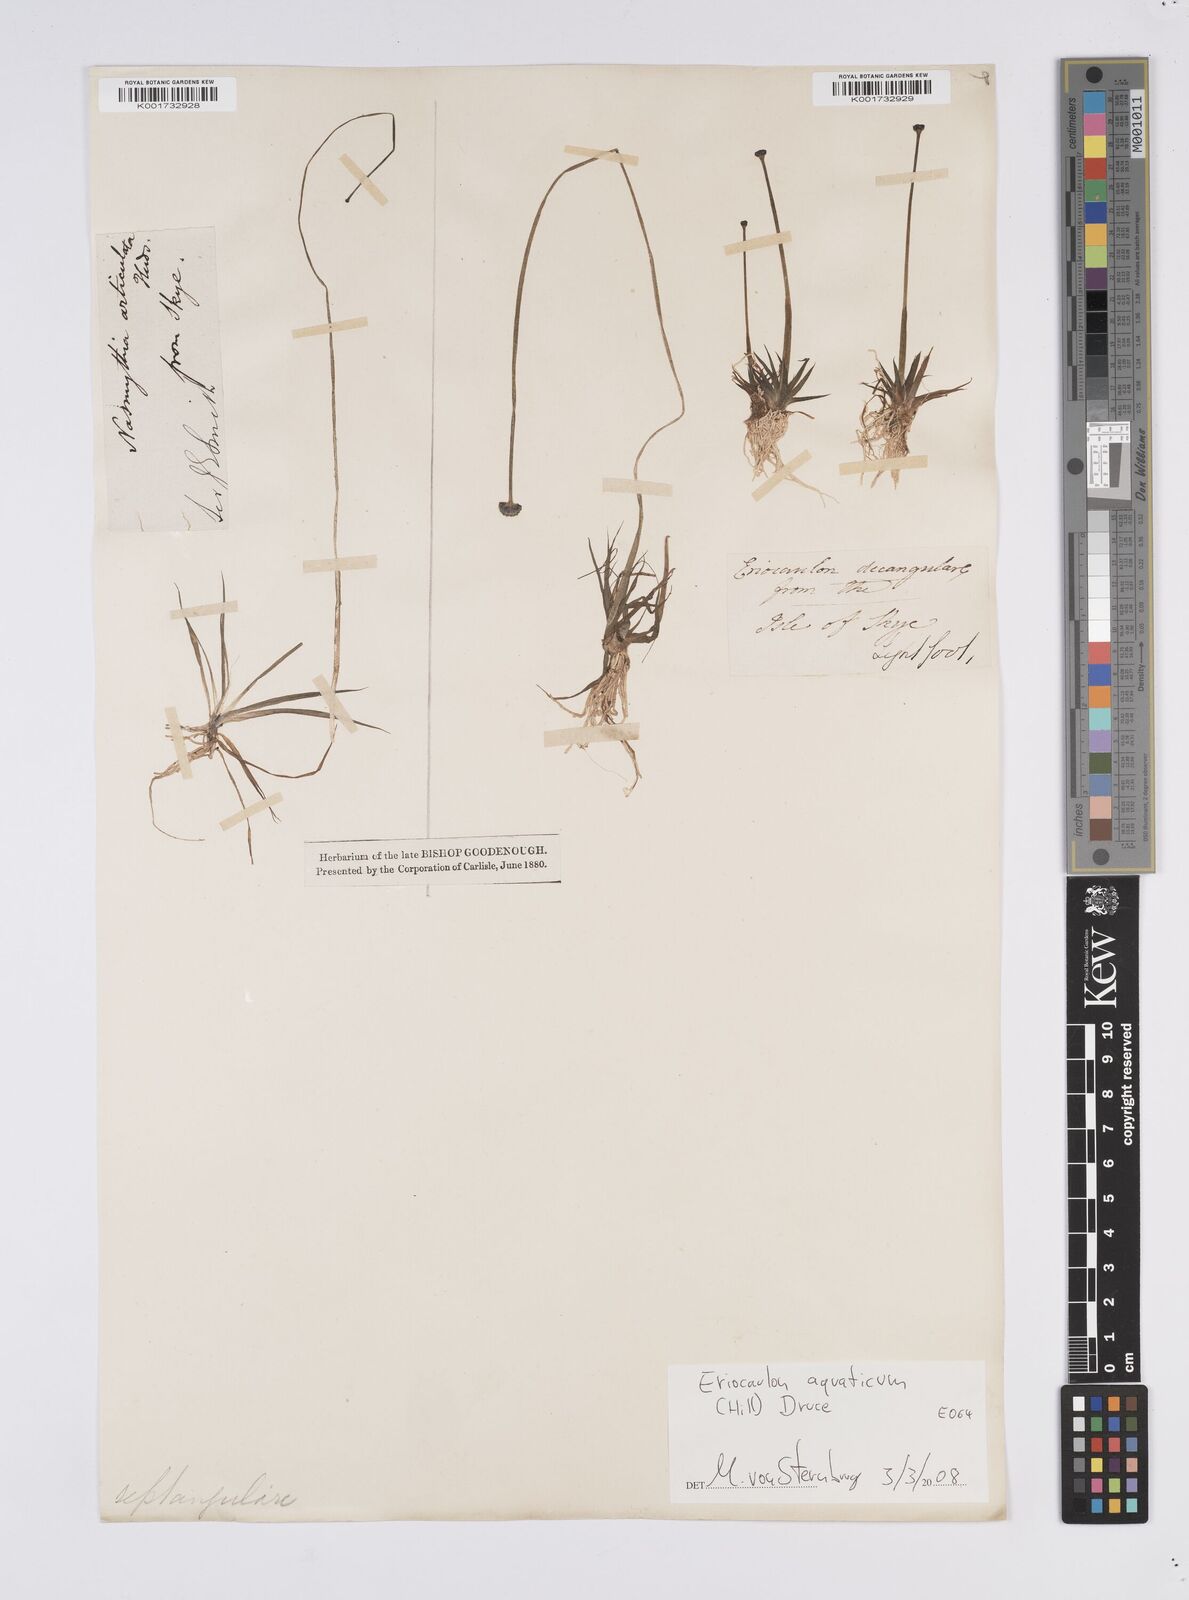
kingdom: Plantae
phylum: Tracheophyta
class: Liliopsida
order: Poales
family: Eriocaulaceae
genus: Eriocaulon
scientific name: Eriocaulon aquaticum
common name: Pipewort
